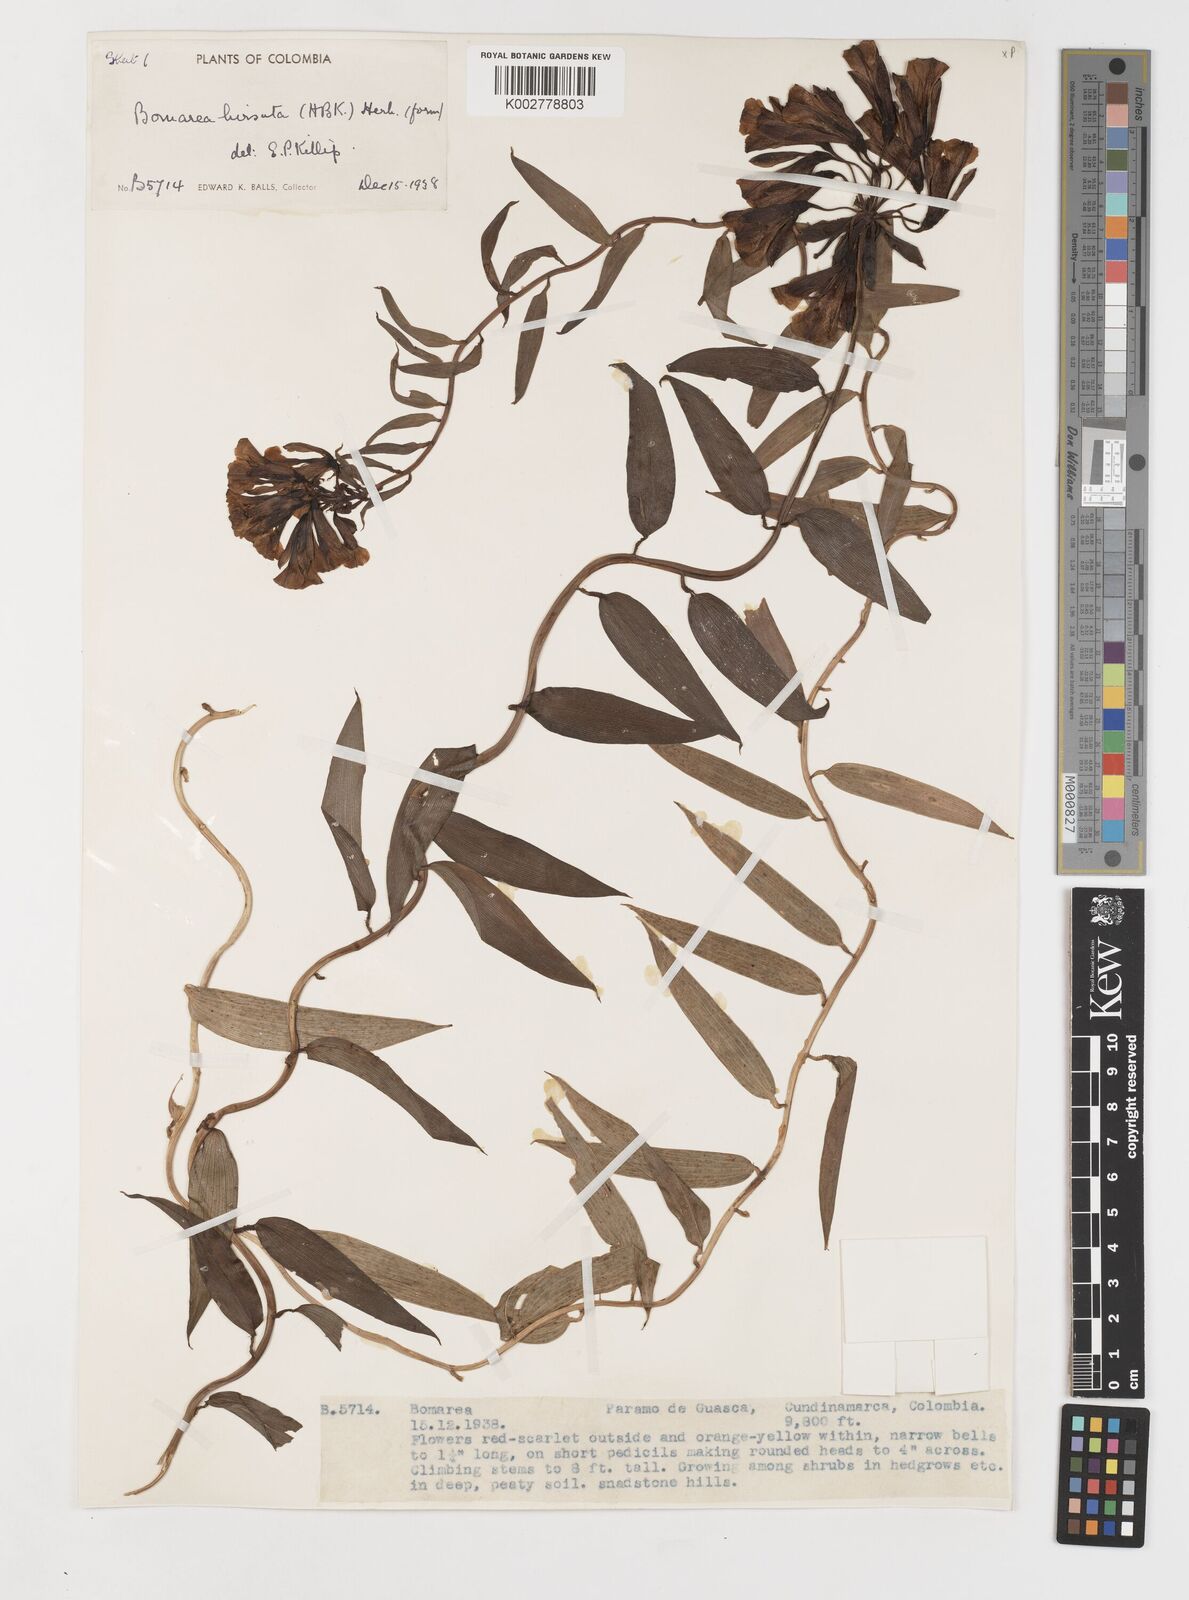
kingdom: Plantae
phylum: Tracheophyta
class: Liliopsida
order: Liliales
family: Alstroemeriaceae
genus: Bomarea
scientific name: Bomarea hirsuta
